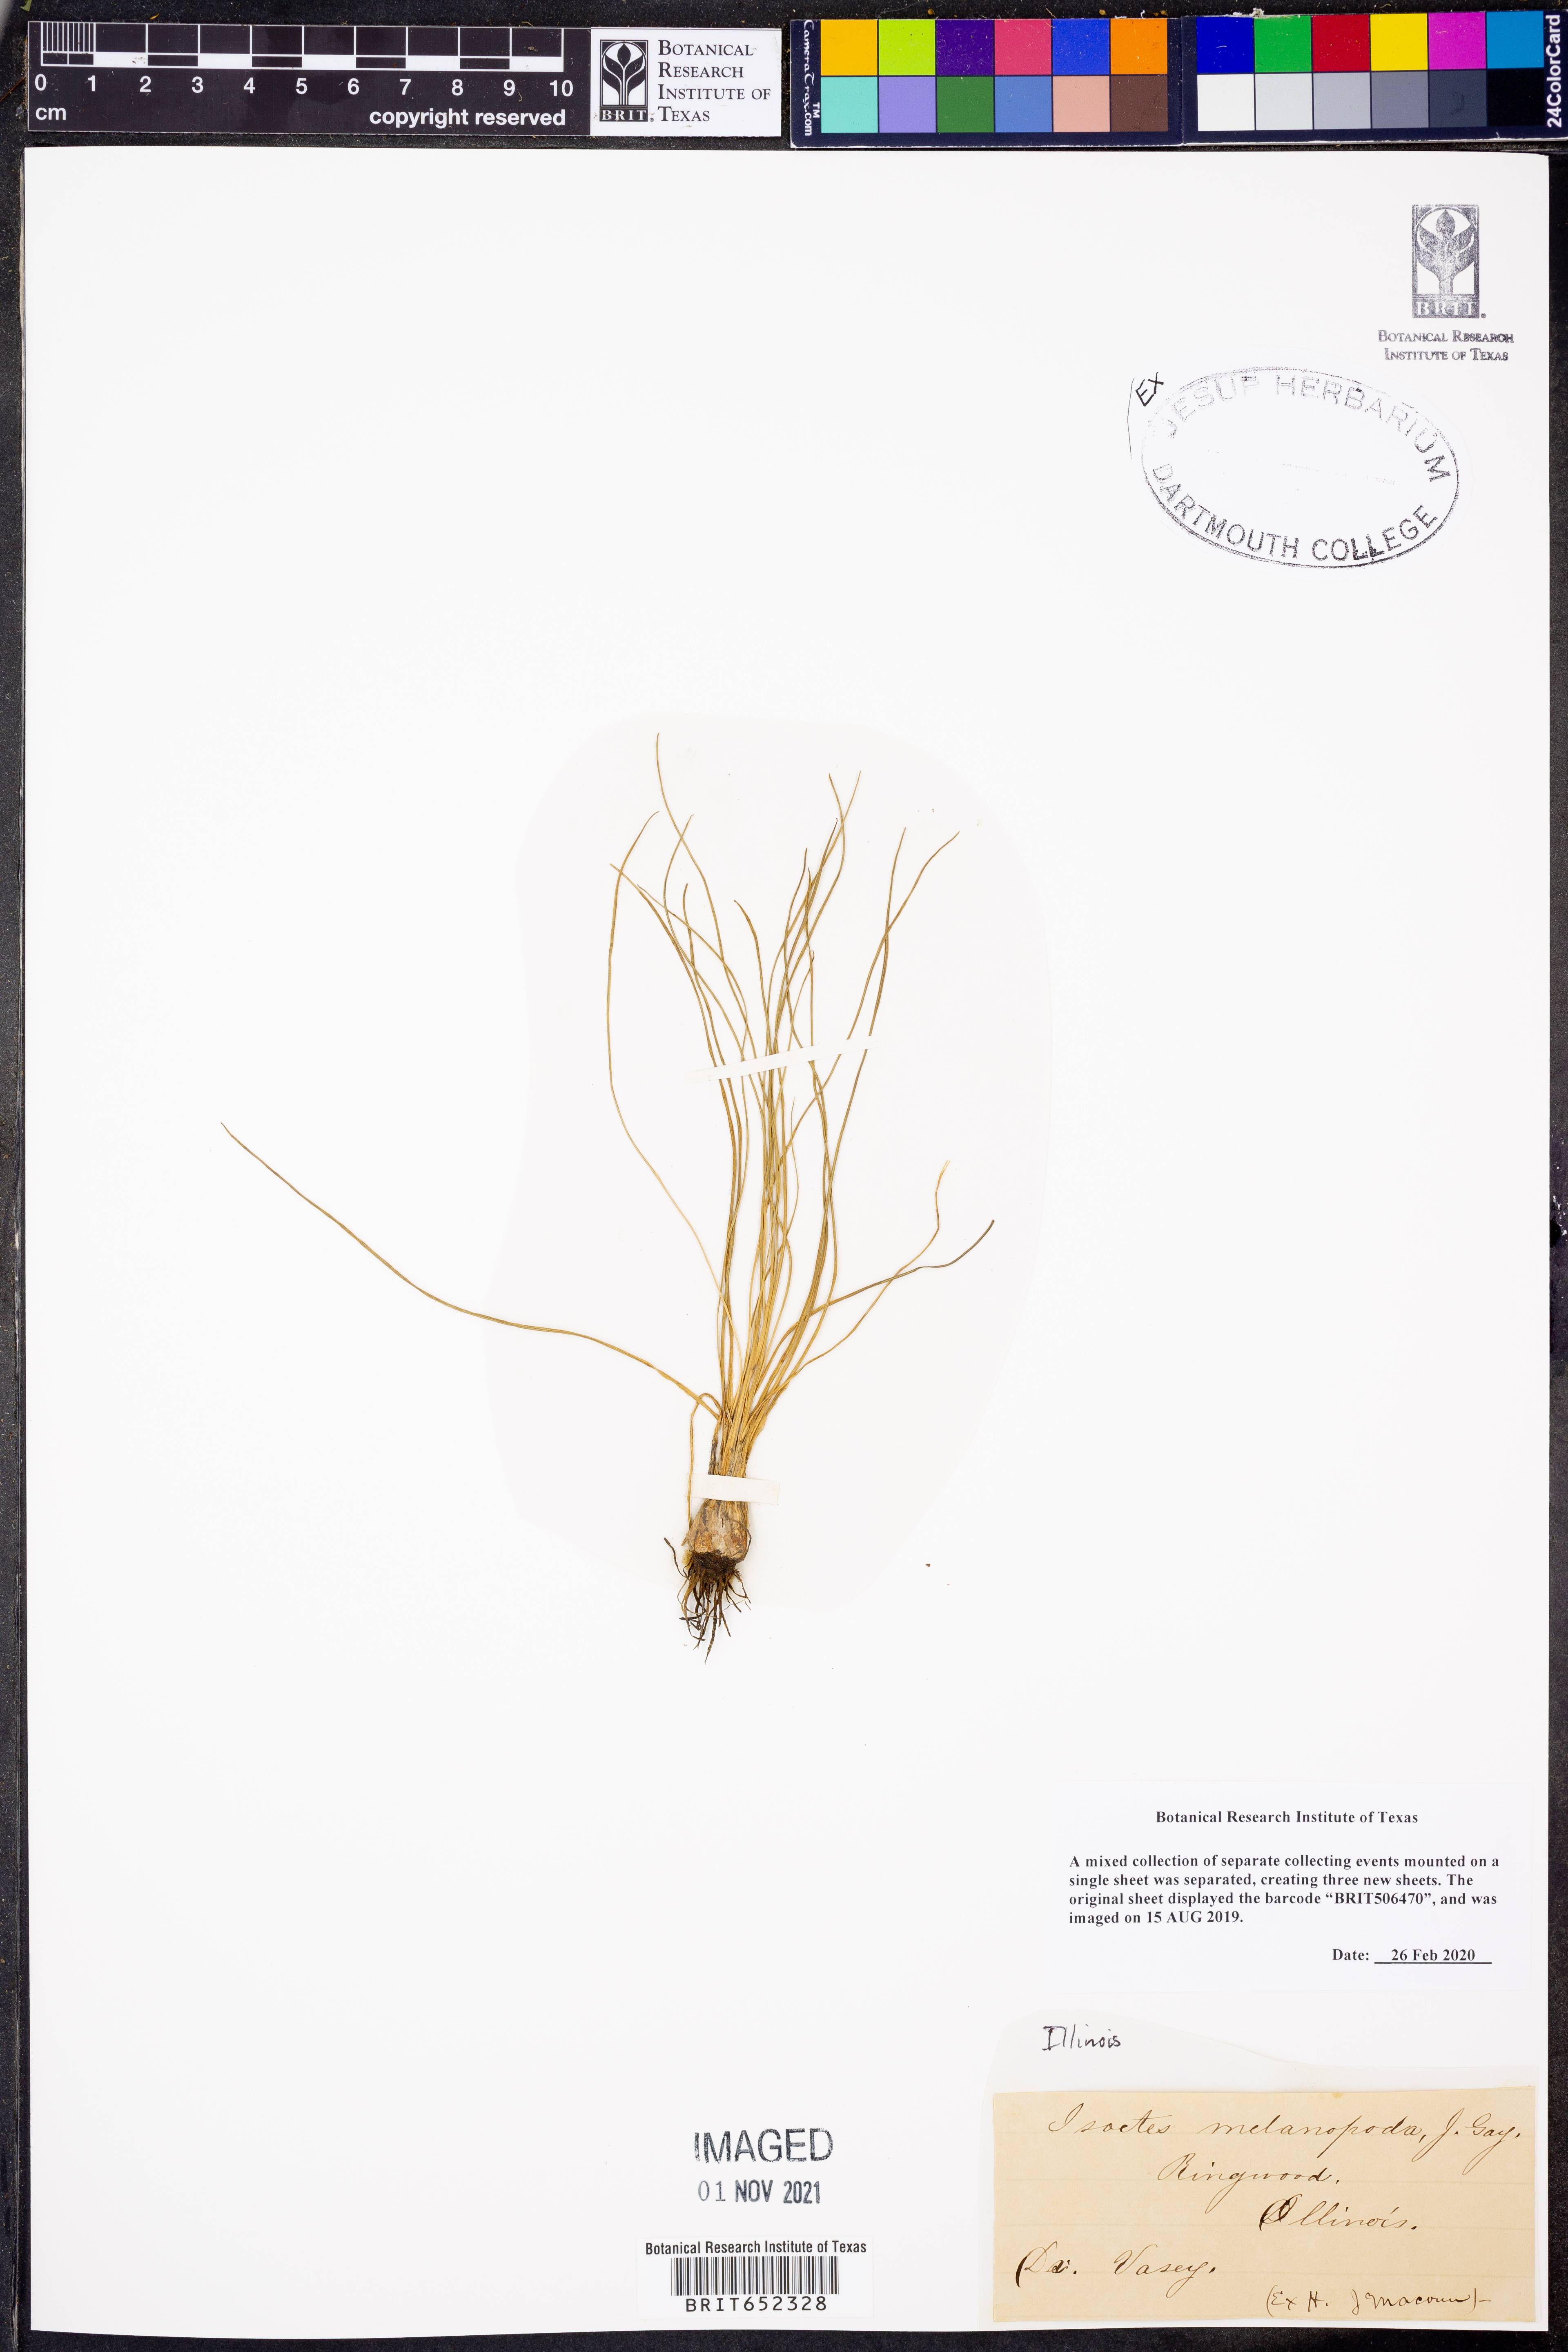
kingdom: Plantae
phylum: Tracheophyta
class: Lycopodiopsida
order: Isoetales
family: Isoetaceae
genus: Isoetes
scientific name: Isoetes melanopoda
